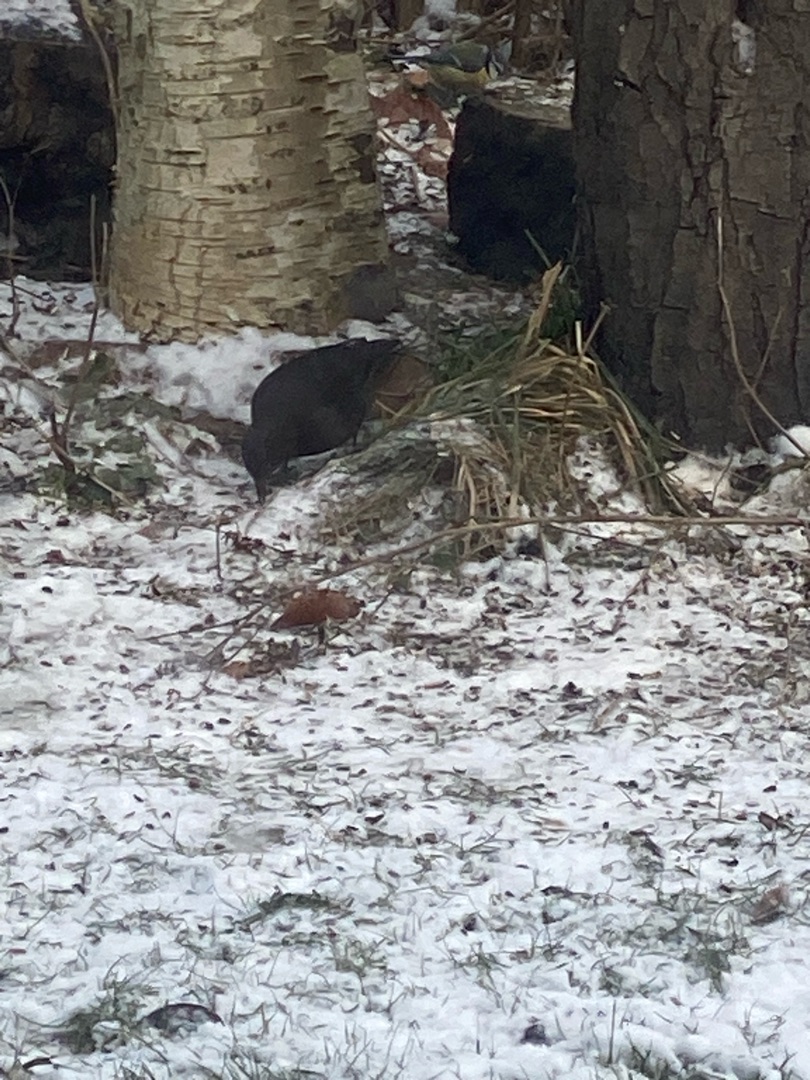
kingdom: Animalia
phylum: Chordata
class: Aves
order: Passeriformes
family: Turdidae
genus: Turdus
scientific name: Turdus merula
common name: Solsort
